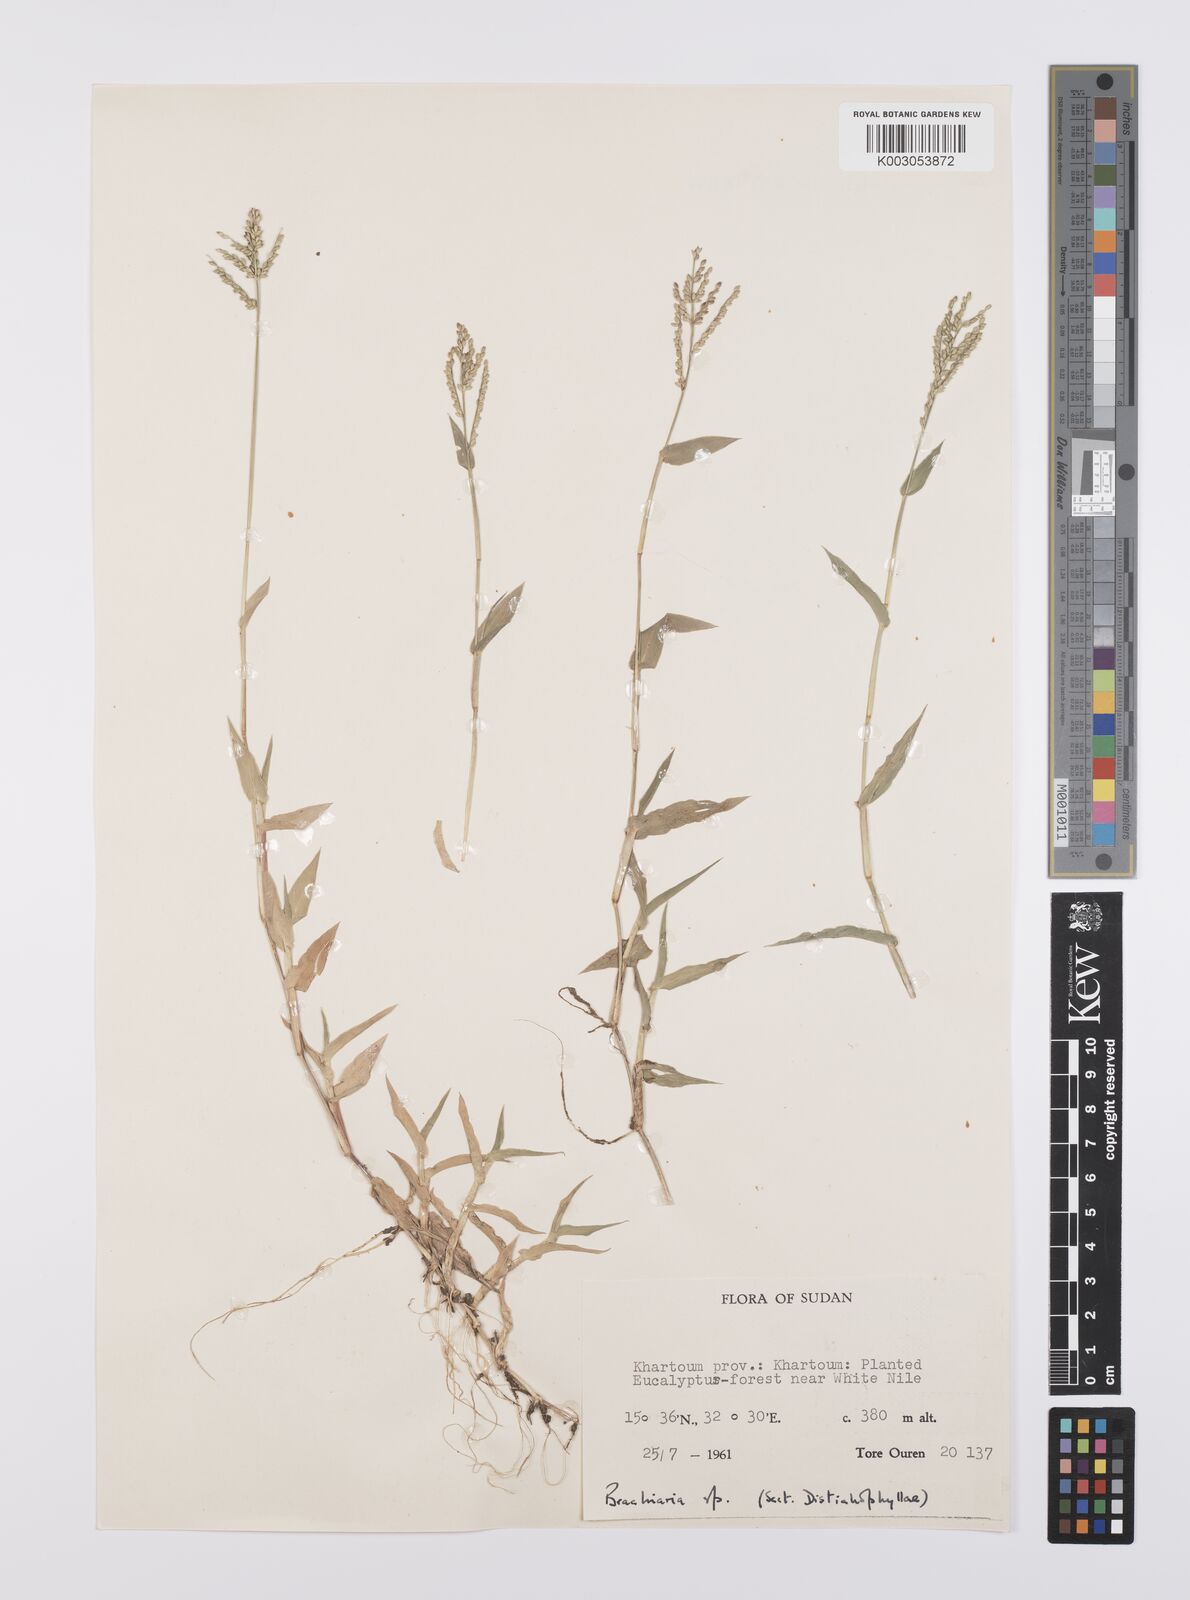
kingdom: Plantae
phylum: Tracheophyta
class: Liliopsida
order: Poales
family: Poaceae
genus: Urochloa
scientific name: Urochloa reptans
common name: Sprawling signalgrass
